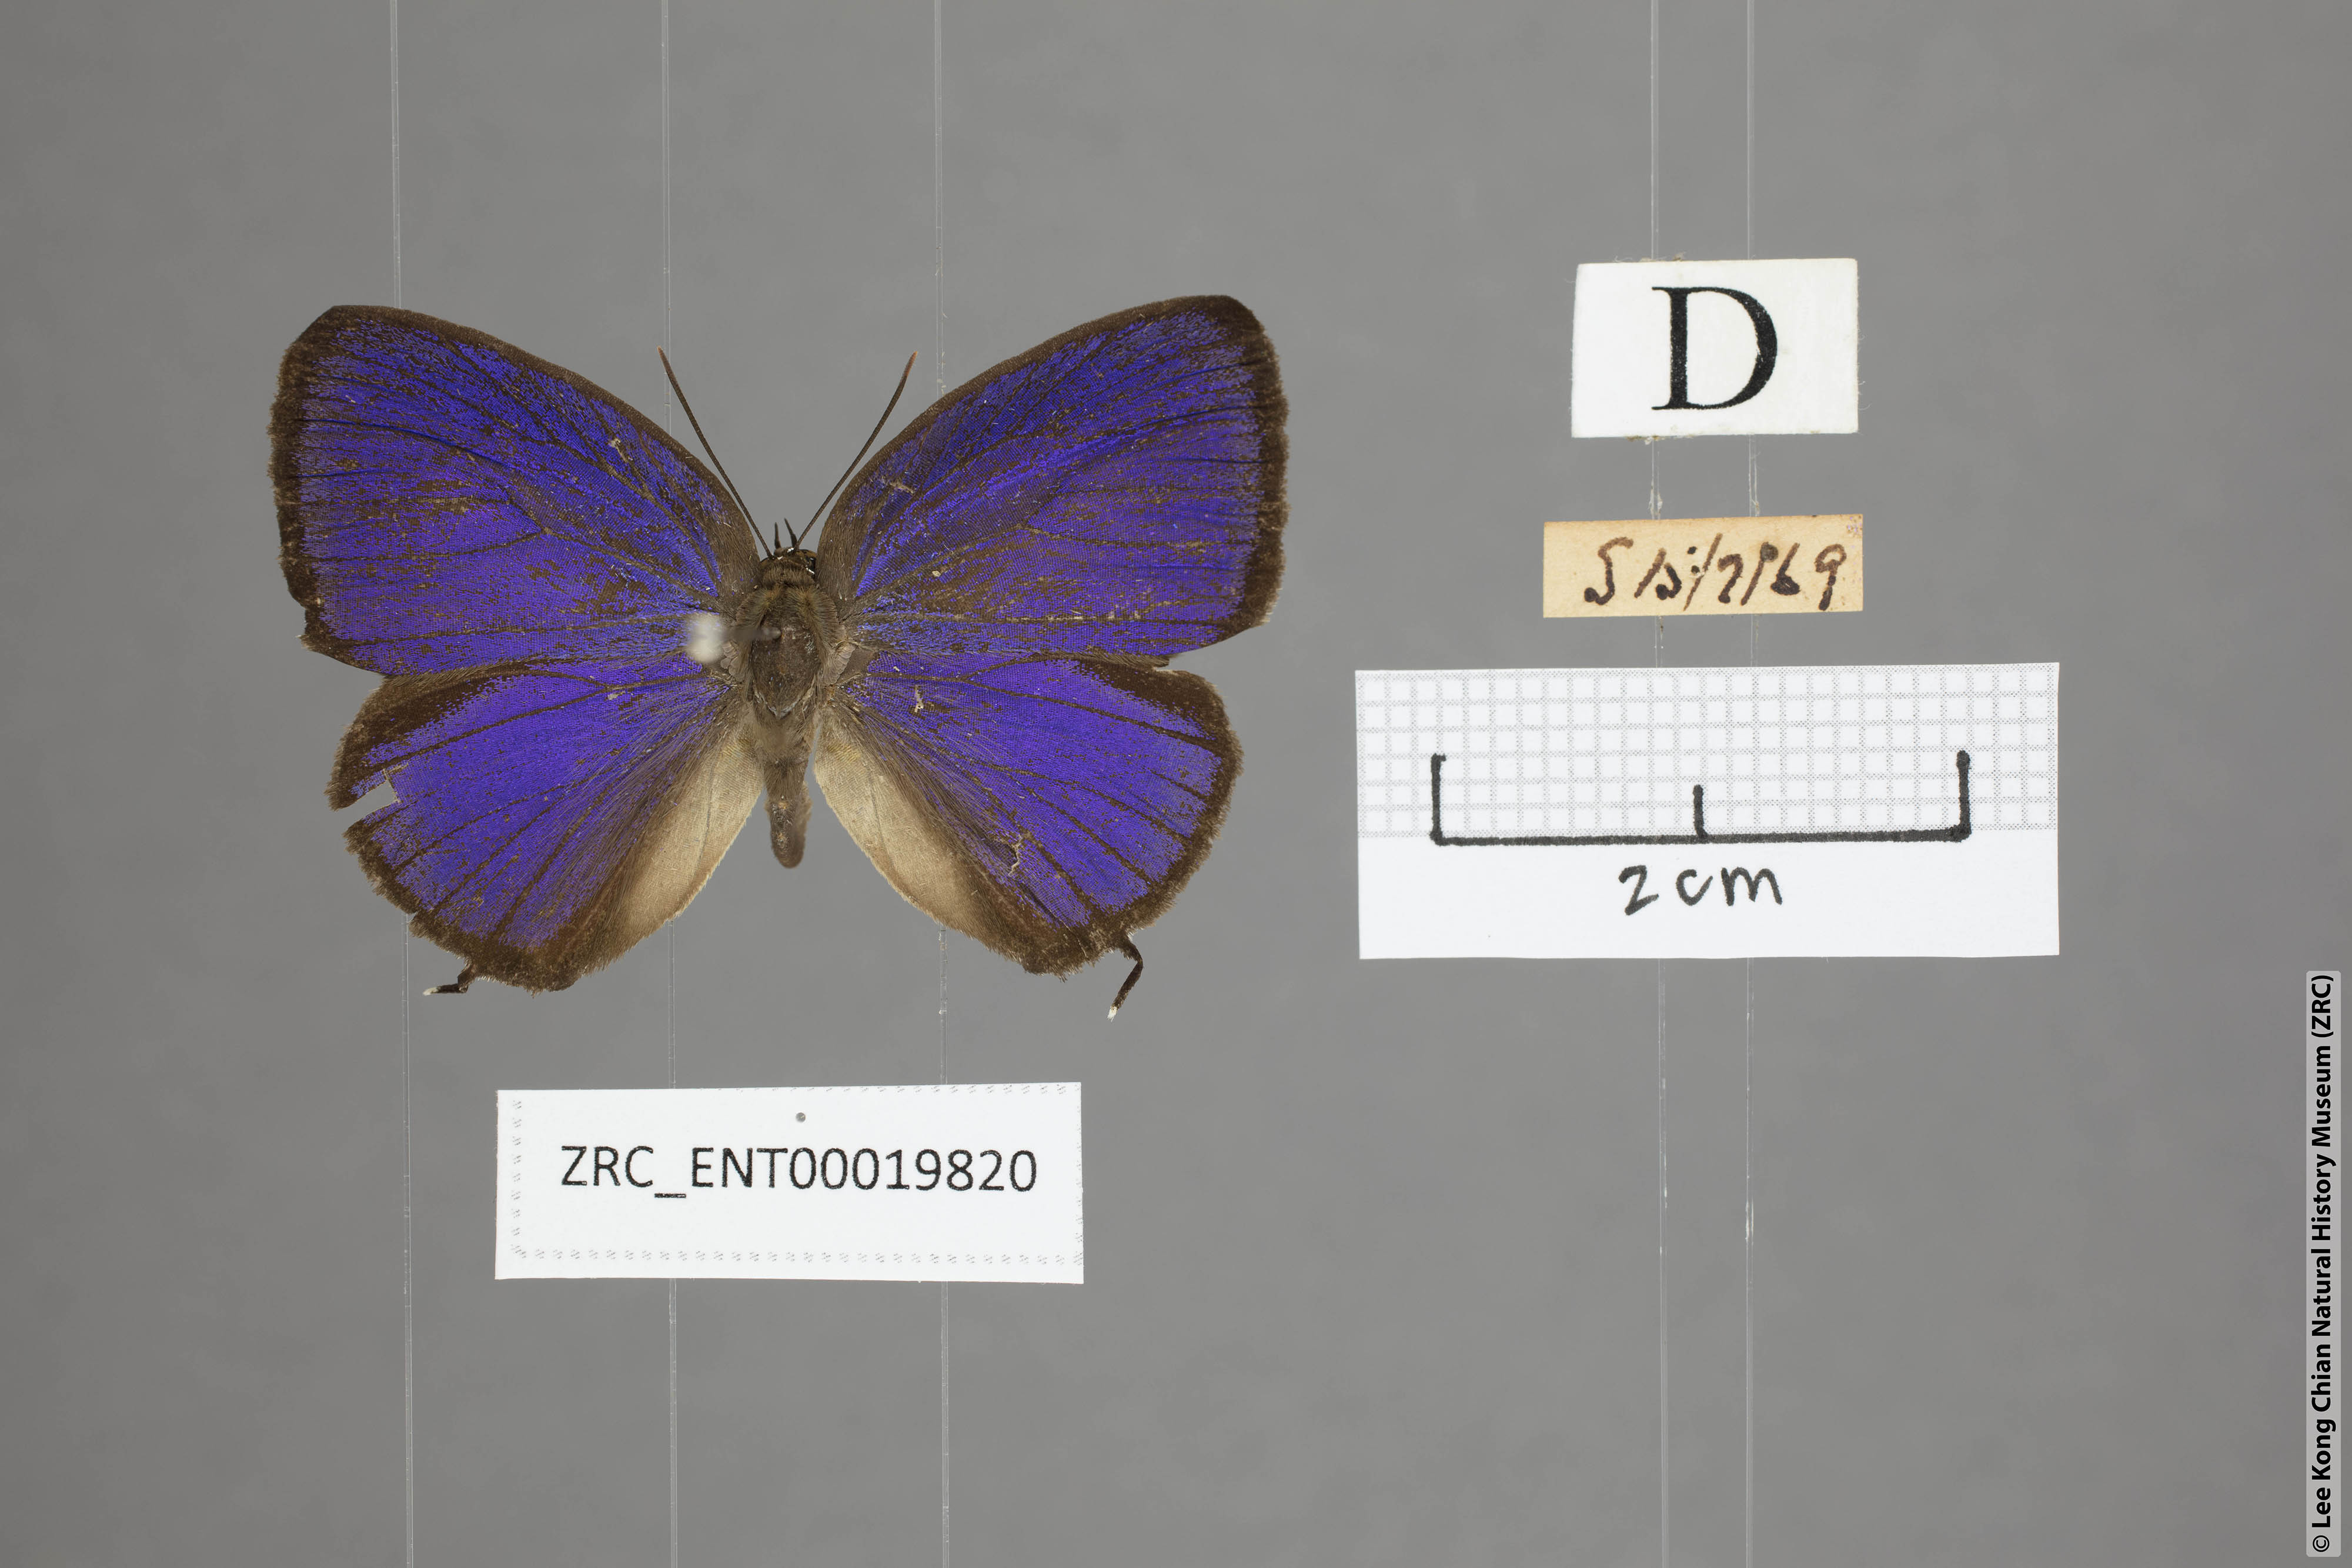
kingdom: Animalia
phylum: Arthropoda
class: Insecta
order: Lepidoptera
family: Lycaenidae
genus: Arhopala
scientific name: Arhopala pseudomuta
